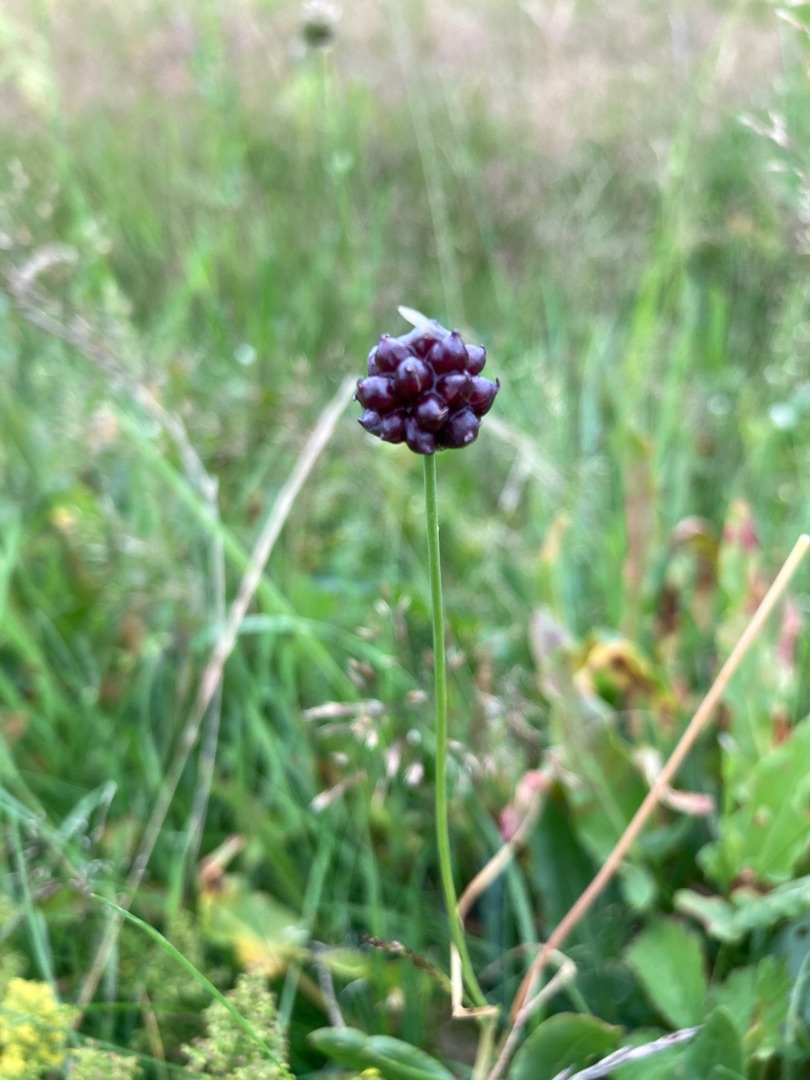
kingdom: Plantae
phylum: Tracheophyta
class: Liliopsida
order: Asparagales
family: Amaryllidaceae
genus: Allium
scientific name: Allium scorodoprasum
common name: Skov-løg
